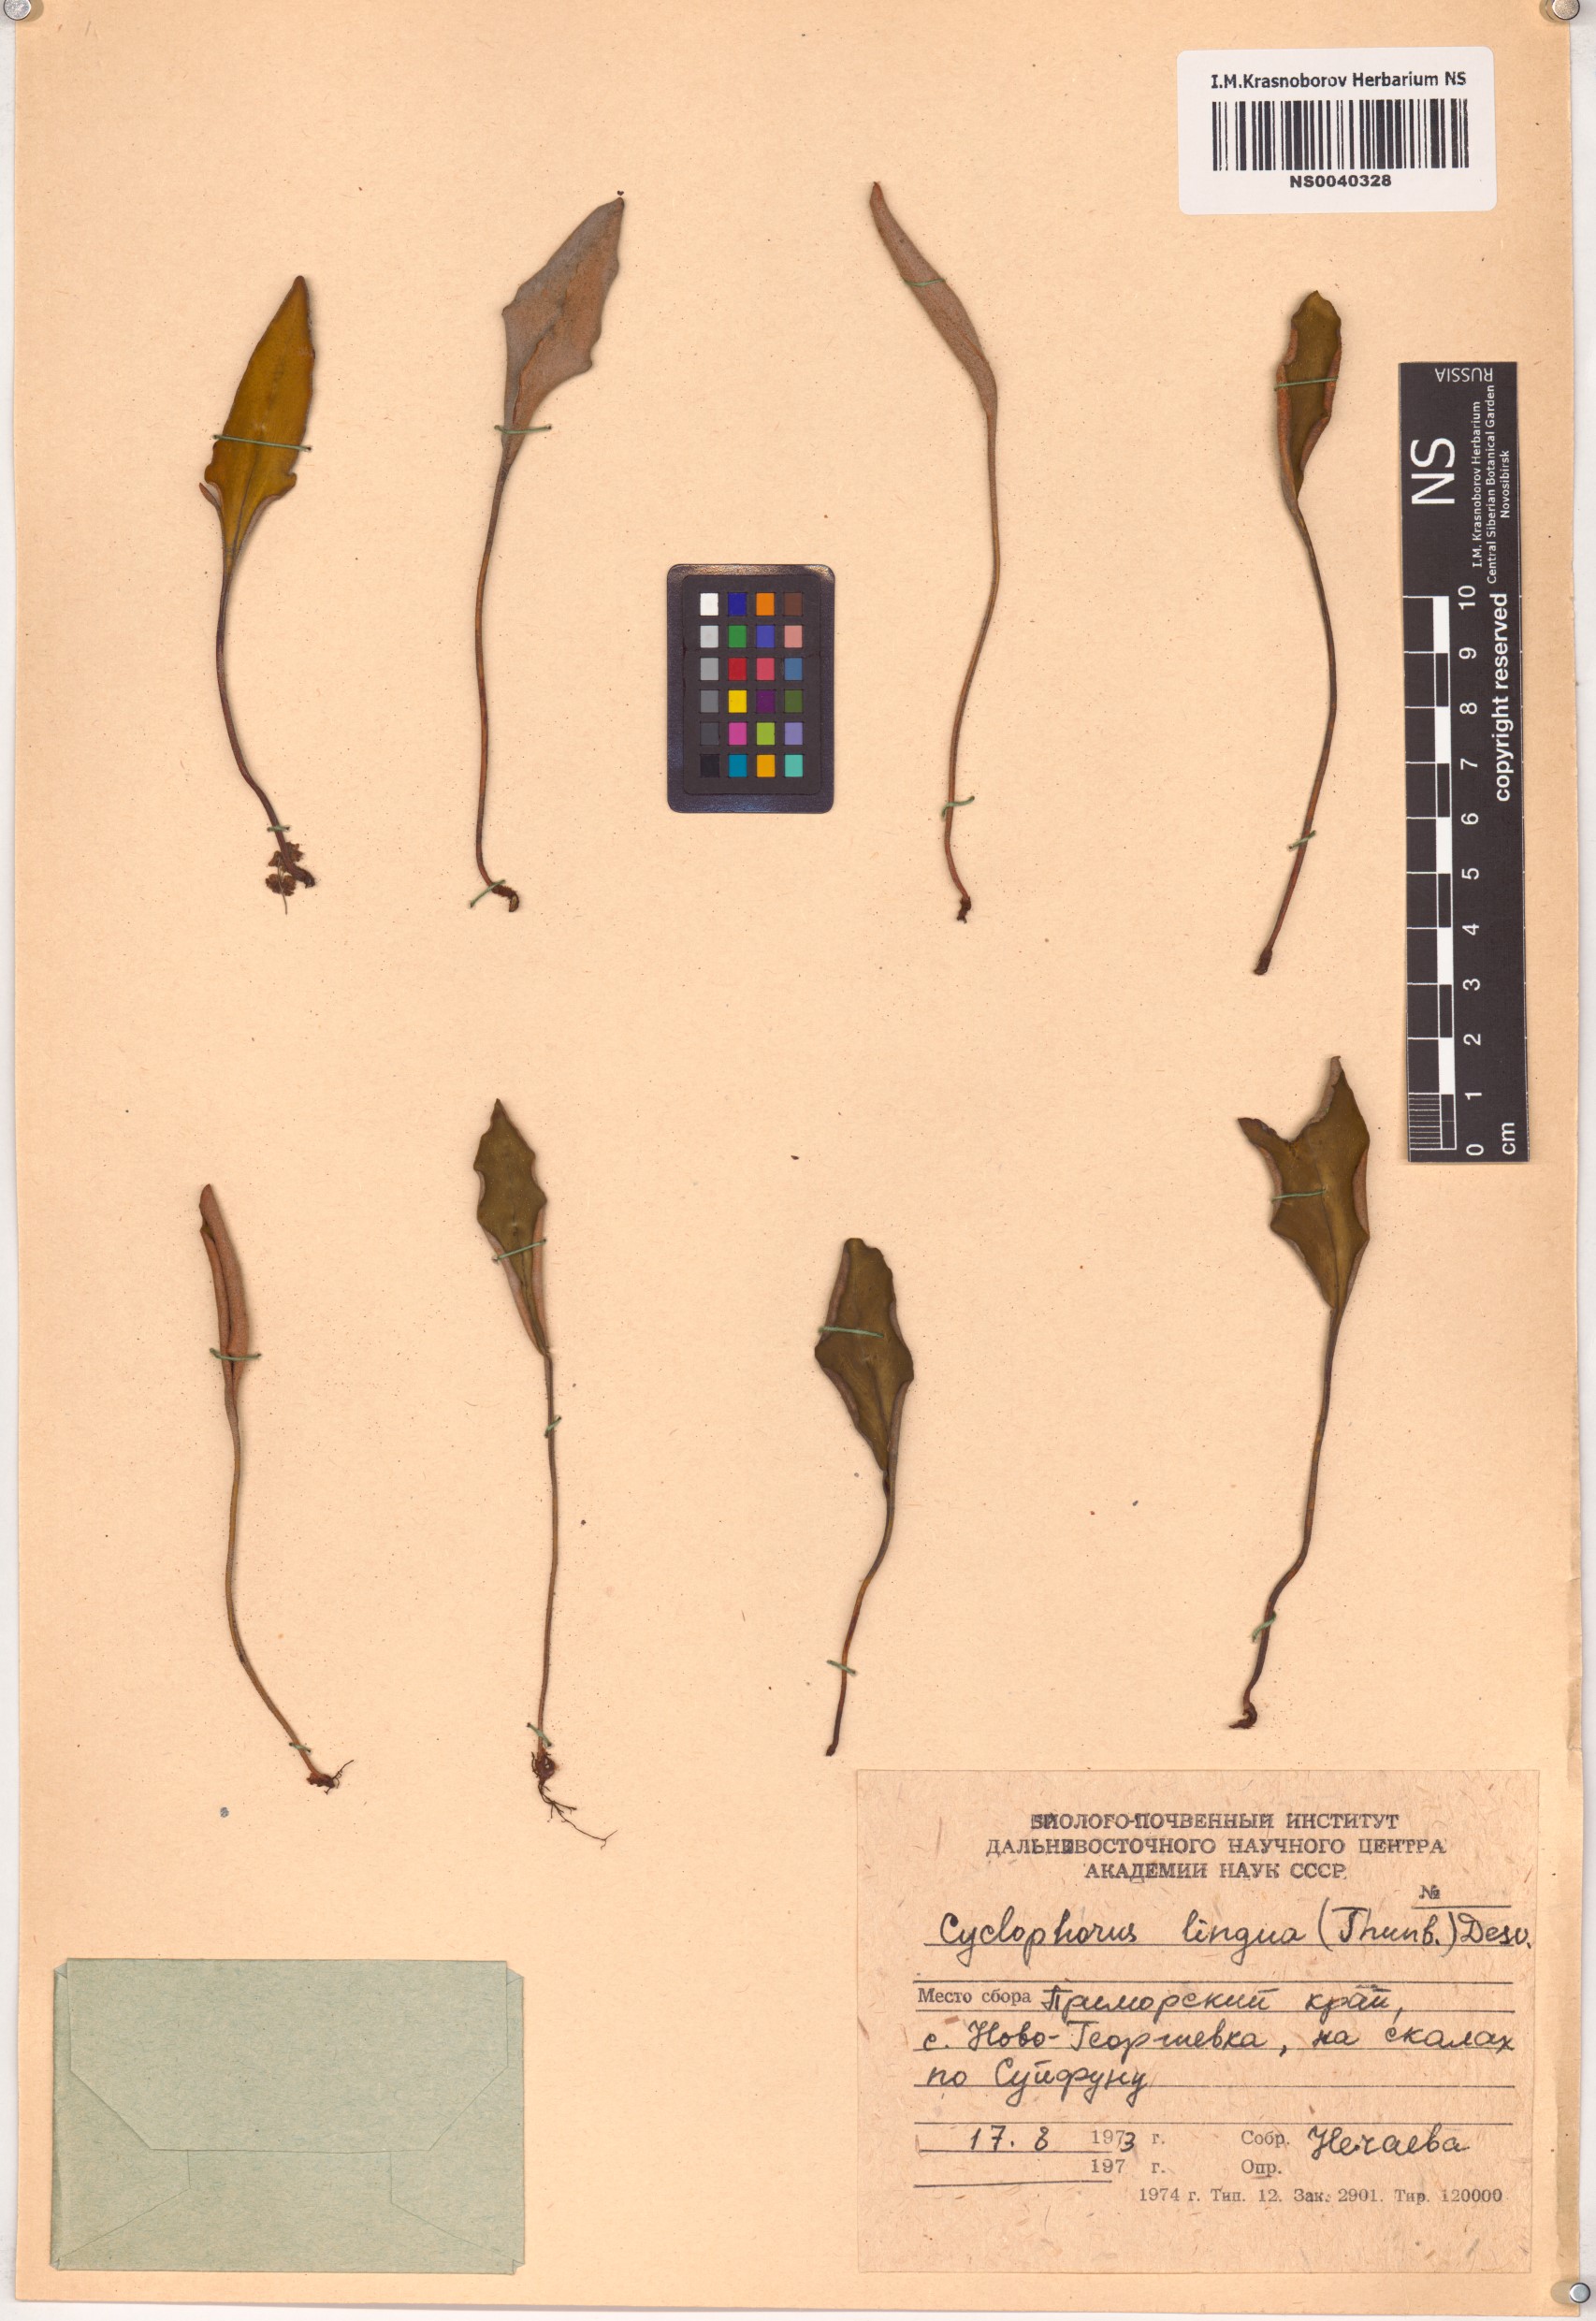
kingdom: Plantae
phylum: Tracheophyta
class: Polypodiopsida
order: Polypodiales
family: Polypodiaceae
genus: Pyrrosia
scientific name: Pyrrosia lingua
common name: Felt fern
